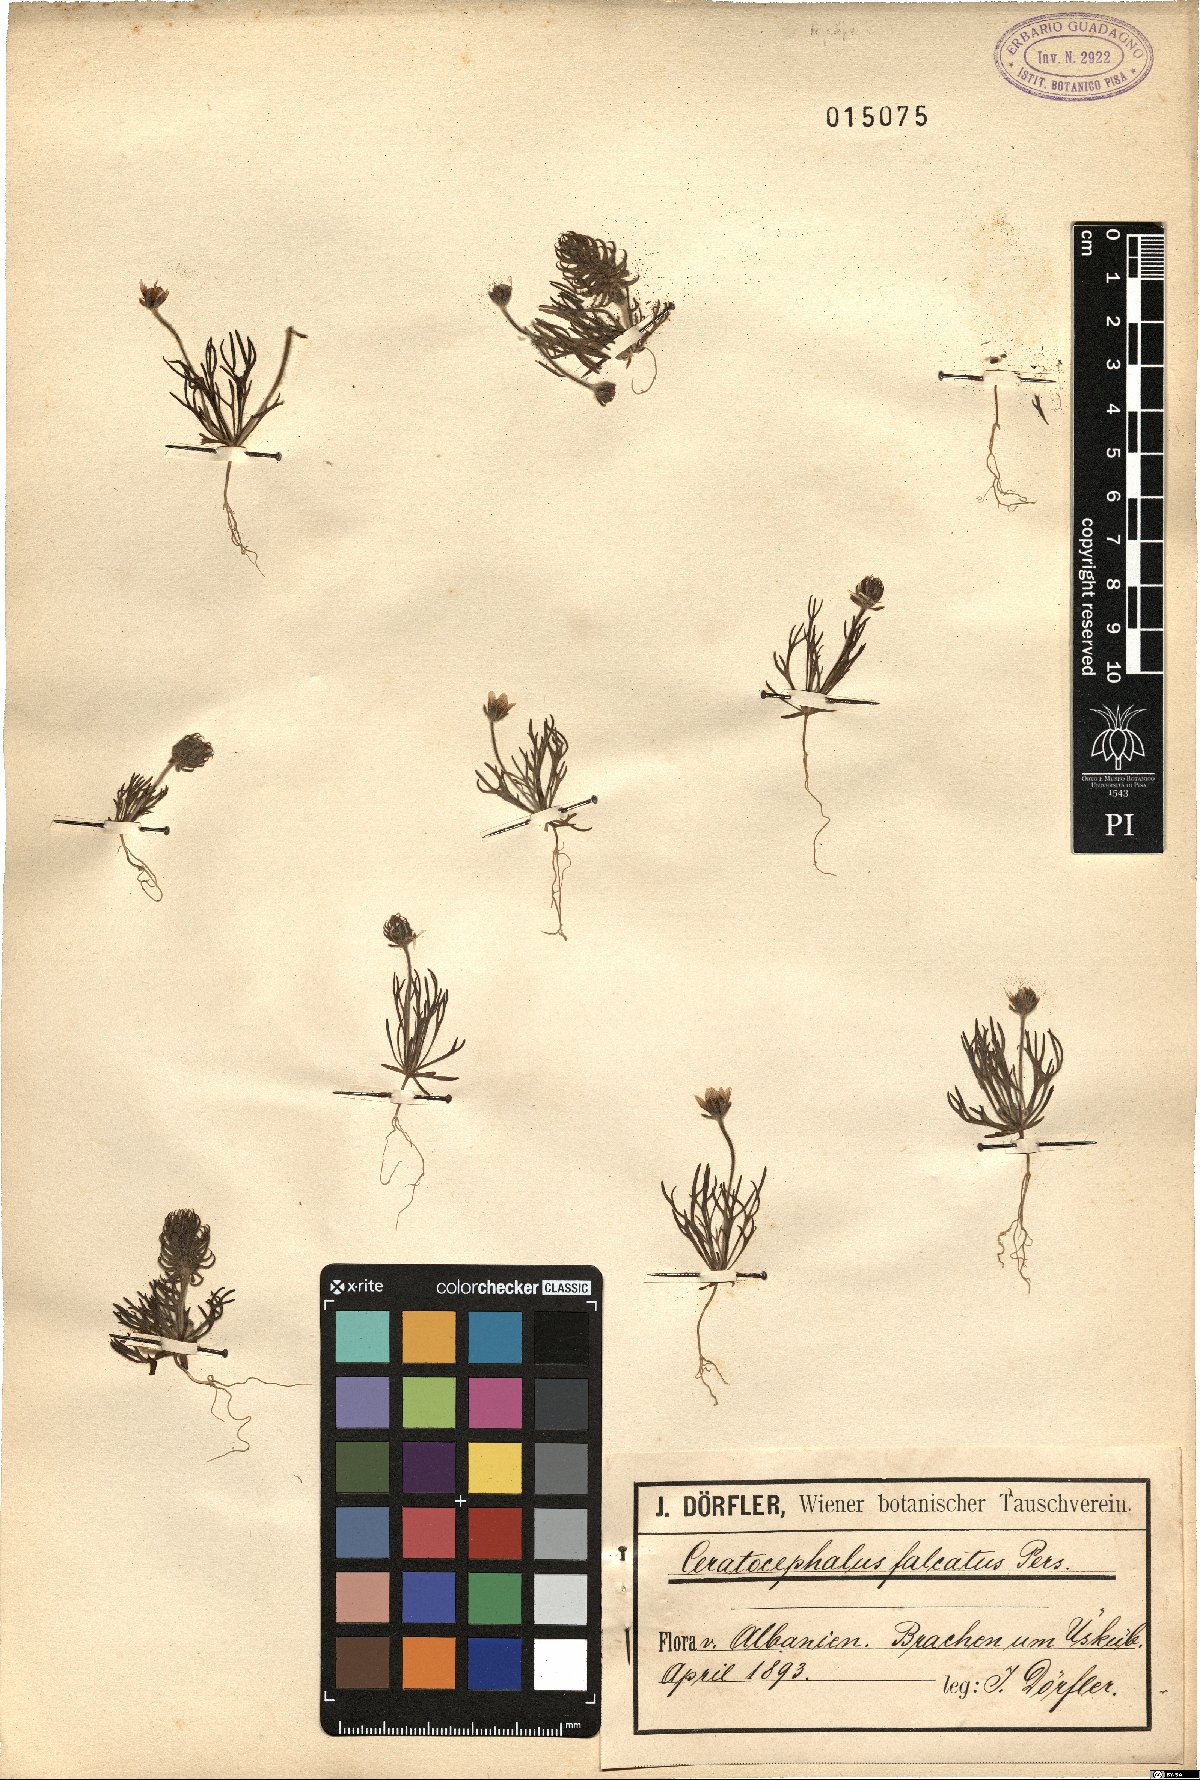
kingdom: Plantae
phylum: Tracheophyta
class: Magnoliopsida
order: Ranunculales
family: Ranunculaceae
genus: Ceratocephala
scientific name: Ceratocephala falcata
